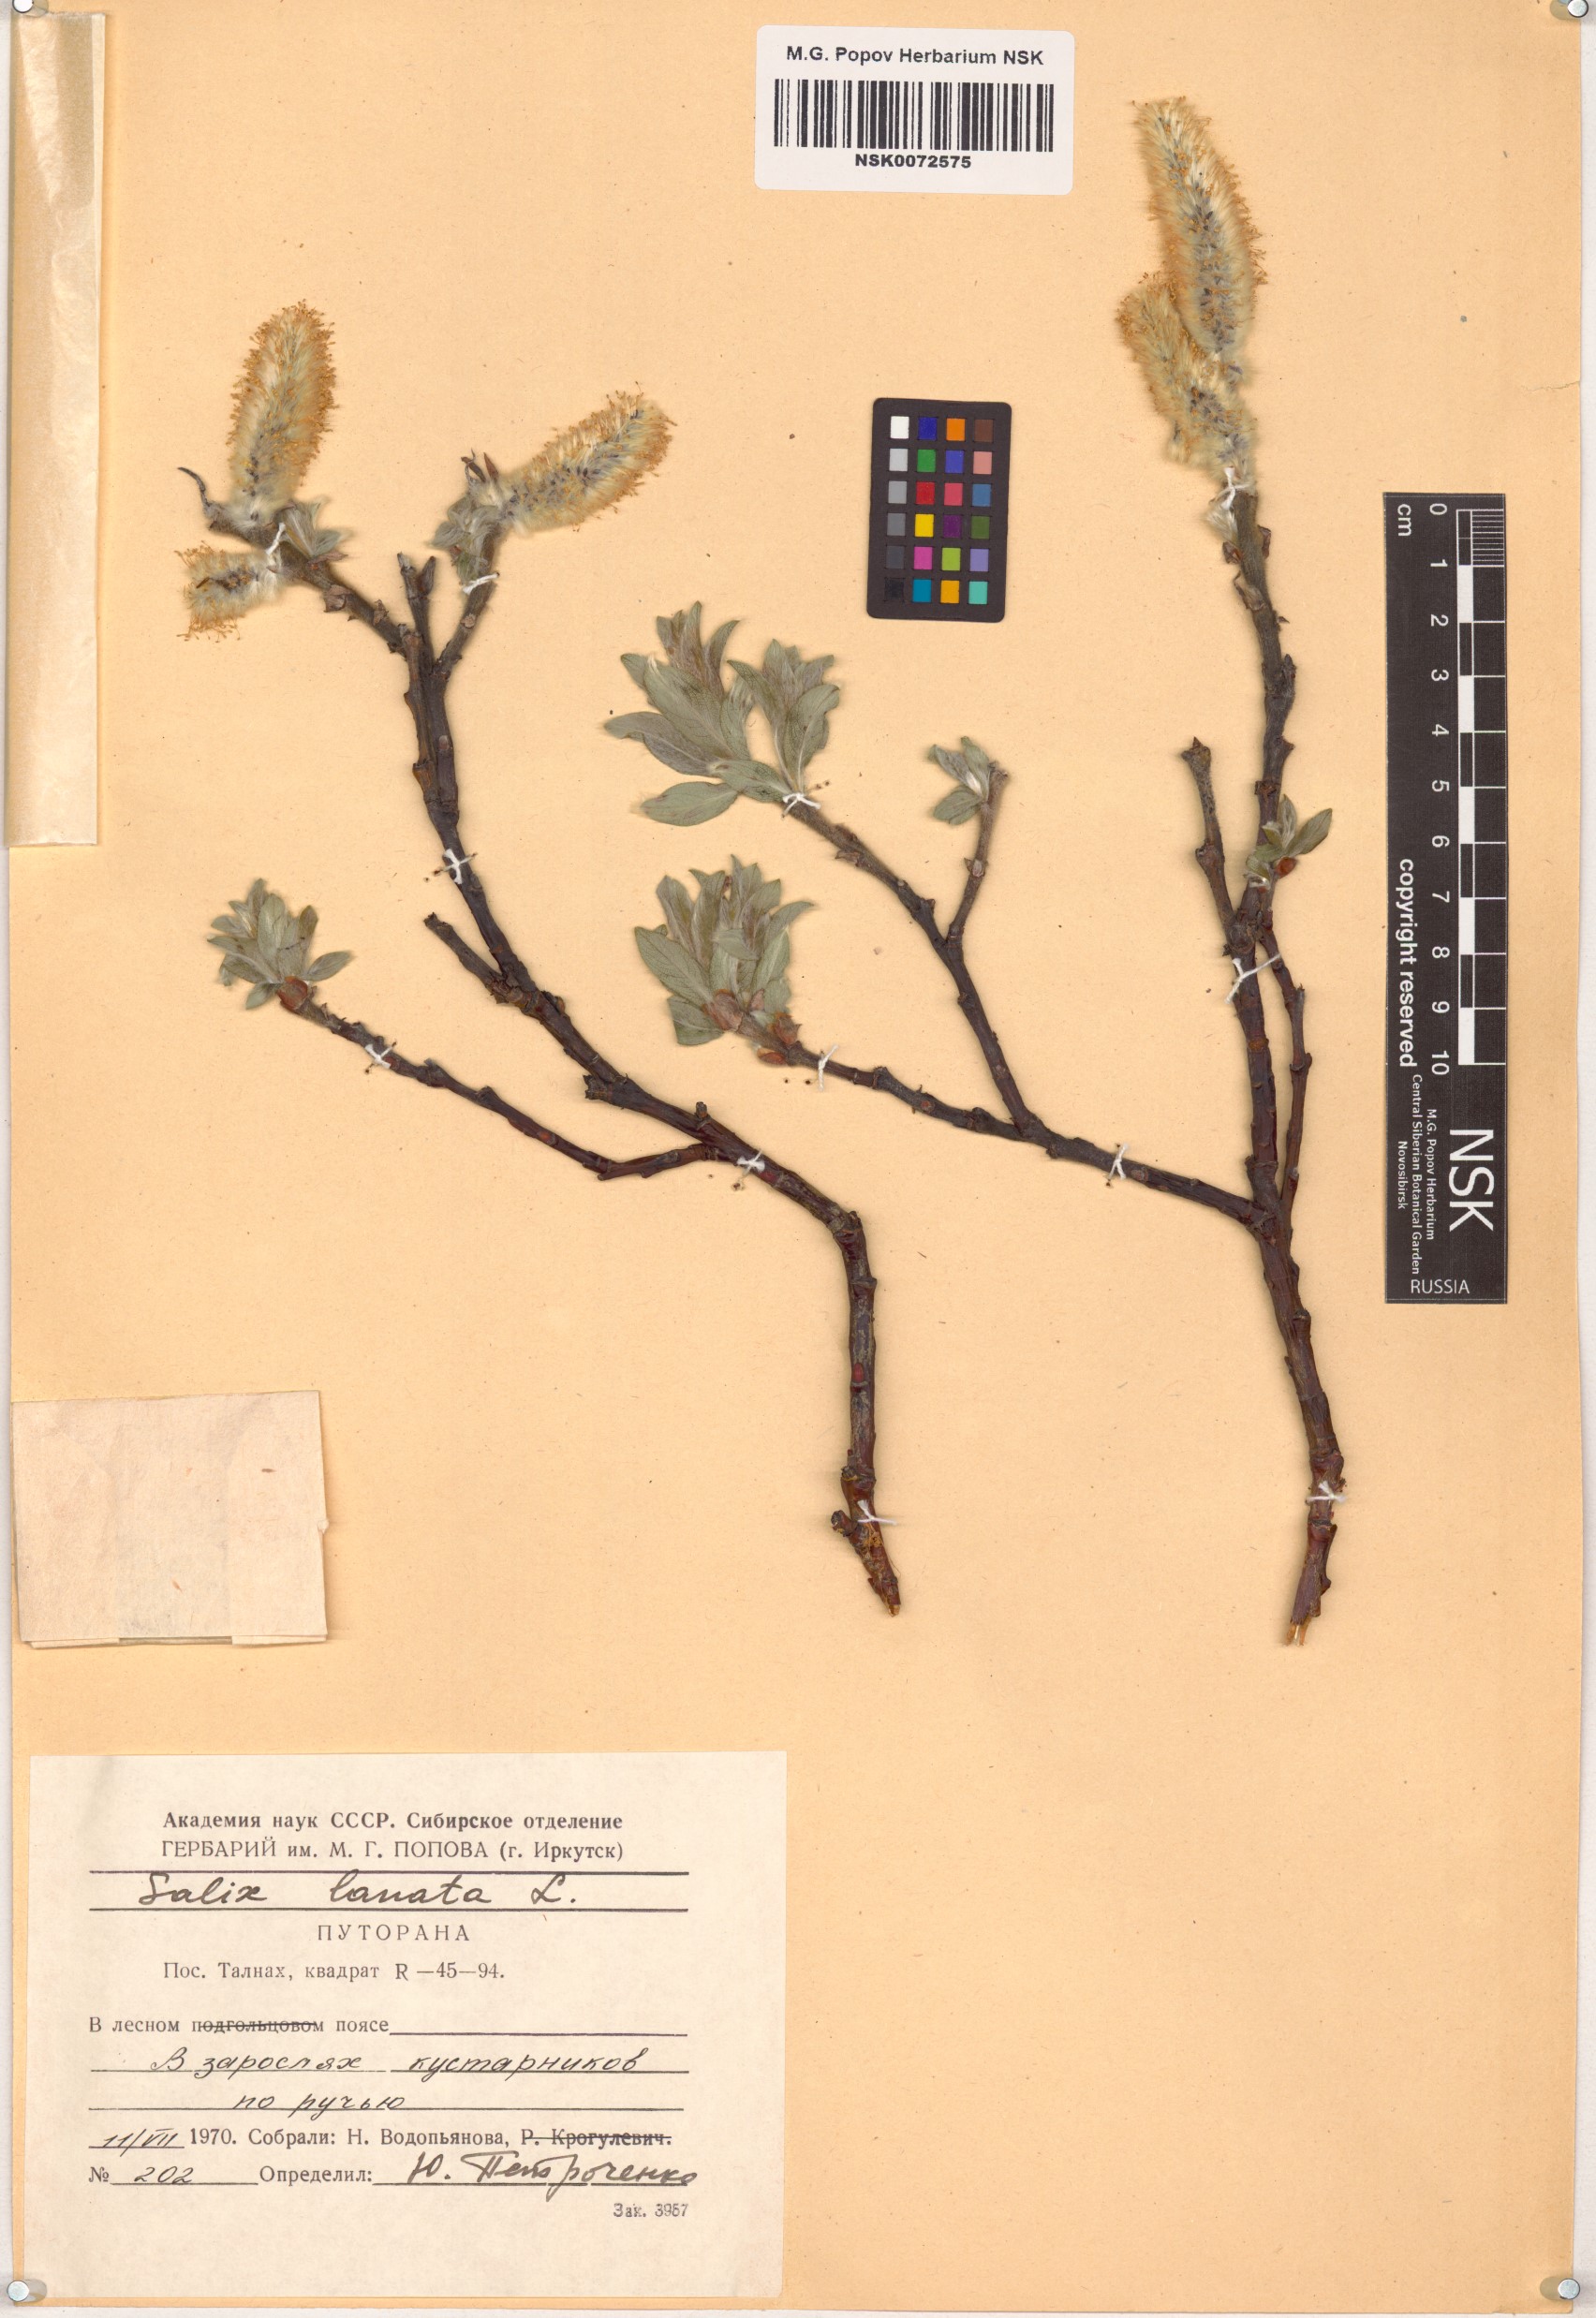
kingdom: Plantae
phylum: Tracheophyta
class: Magnoliopsida
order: Malpighiales
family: Salicaceae
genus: Salix
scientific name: Salix lanata
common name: Woolly willow
